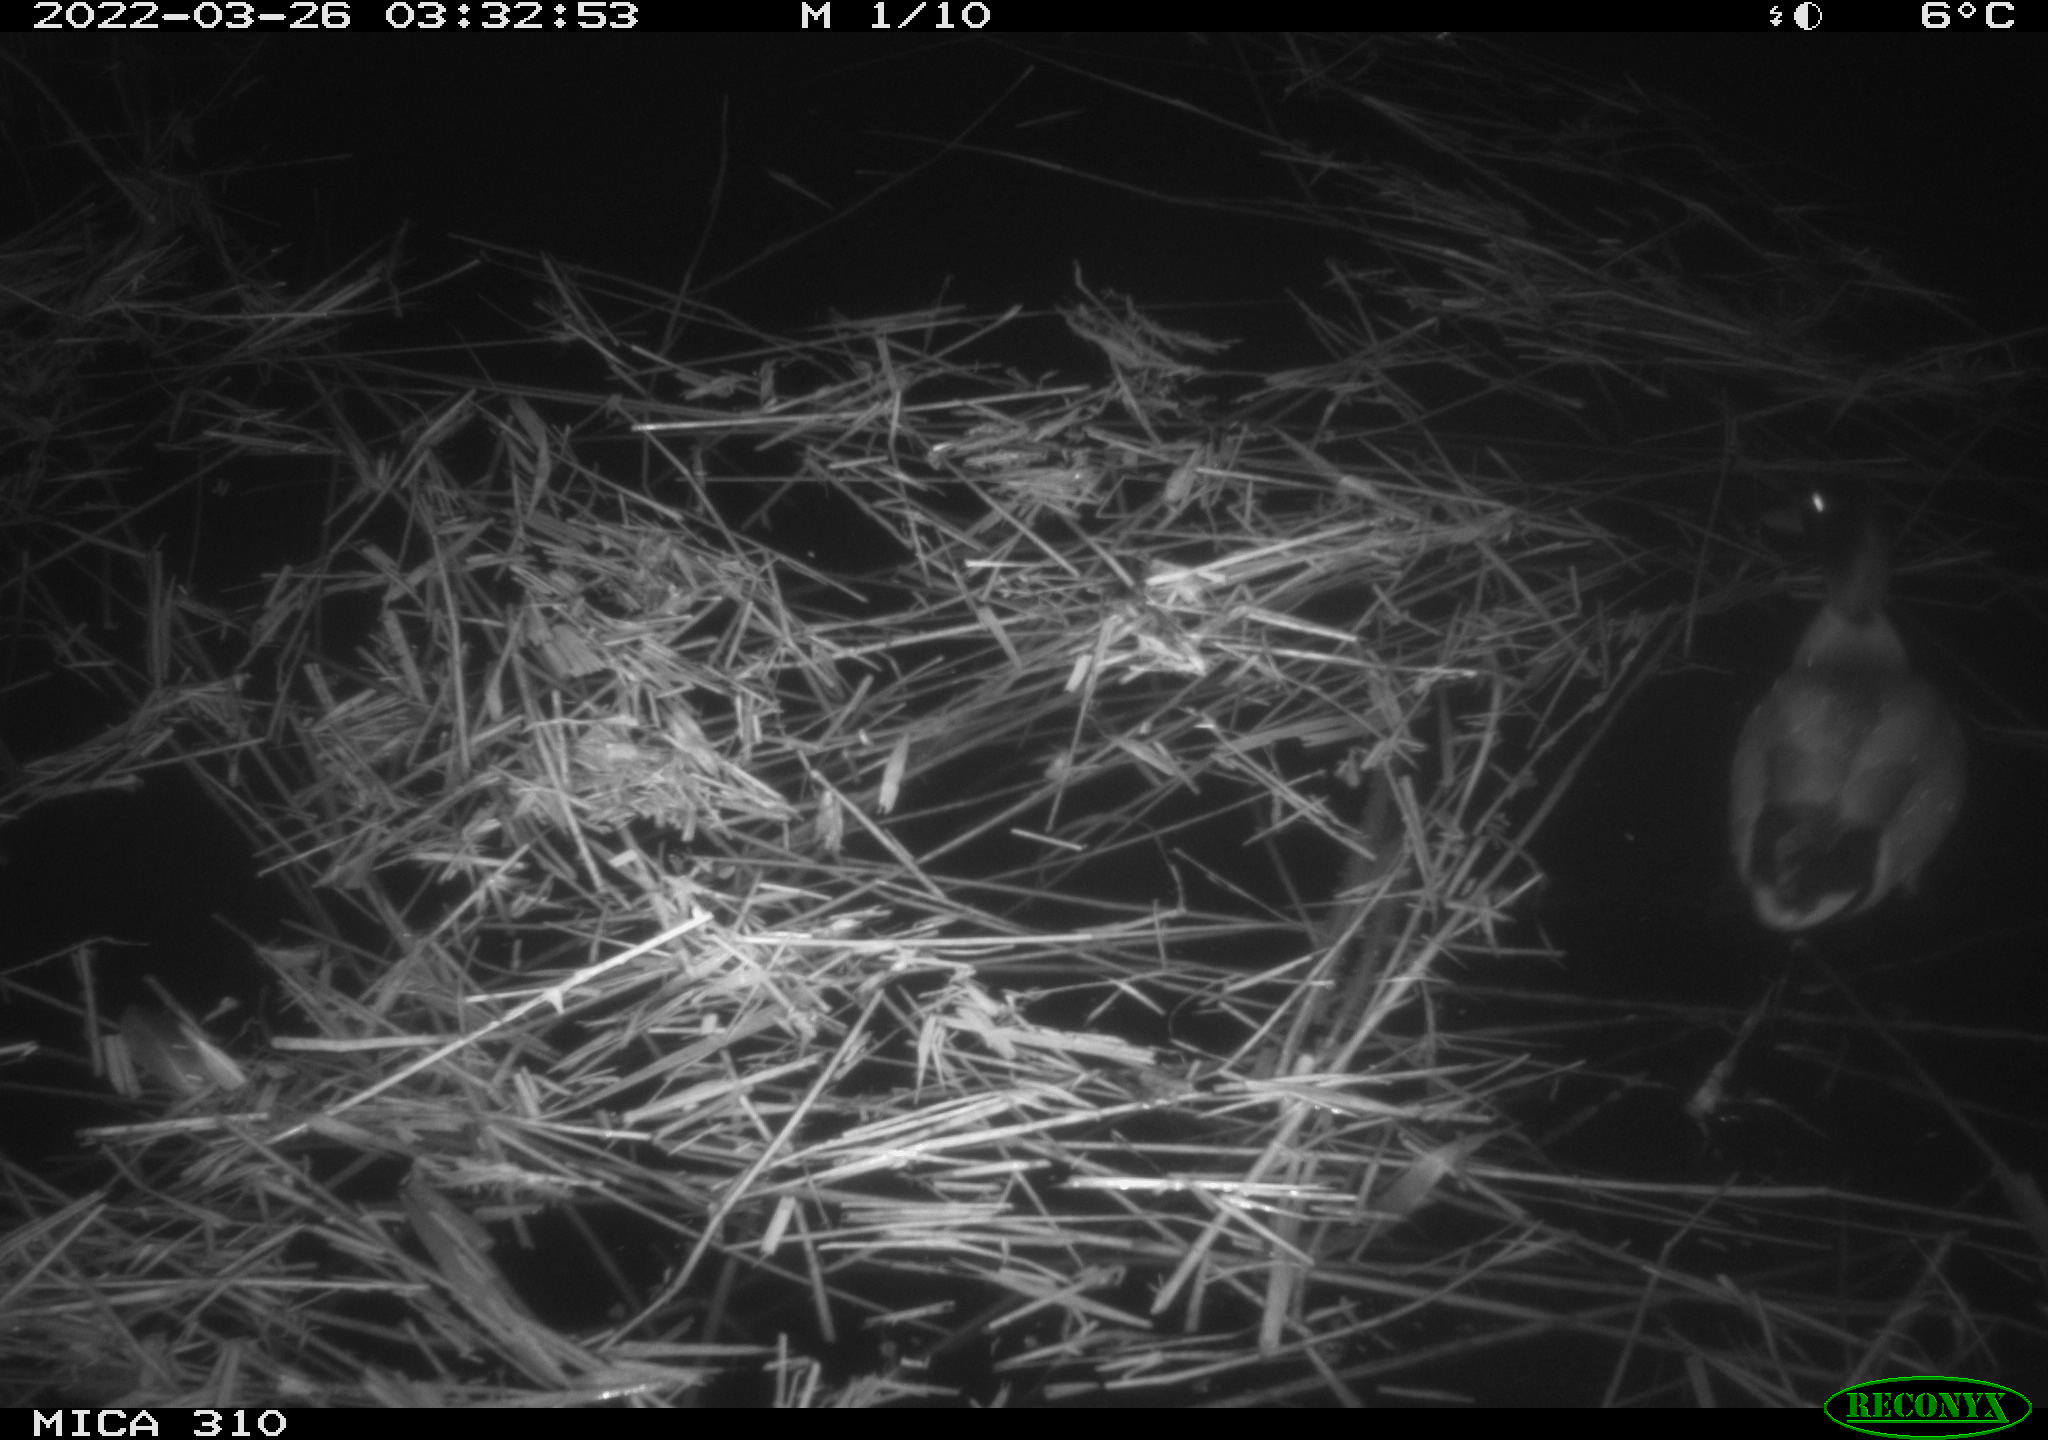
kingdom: Animalia
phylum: Chordata
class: Aves
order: Anseriformes
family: Anatidae
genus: Anas
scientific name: Anas platyrhynchos
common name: Mallard
